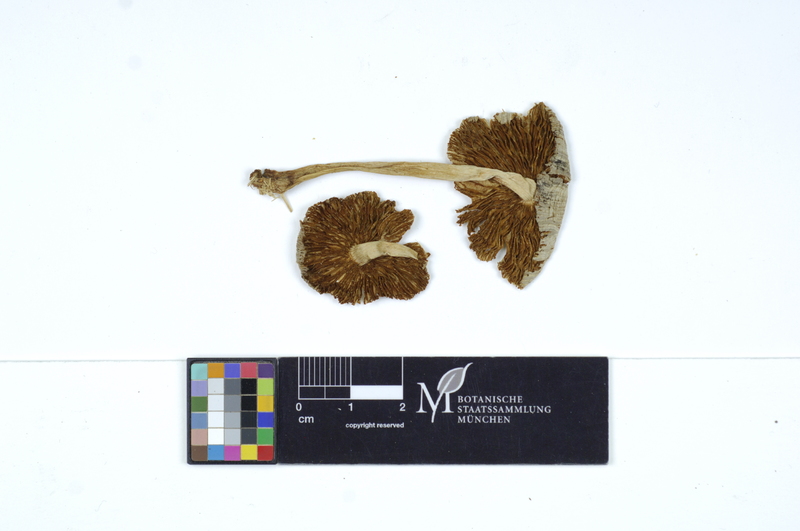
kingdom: Fungi
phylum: Basidiomycota
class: Agaricomycetes
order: Agaricales
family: Bolbitiaceae
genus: Bolbitius
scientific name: Bolbitius titubans
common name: Yellow fieldcap
